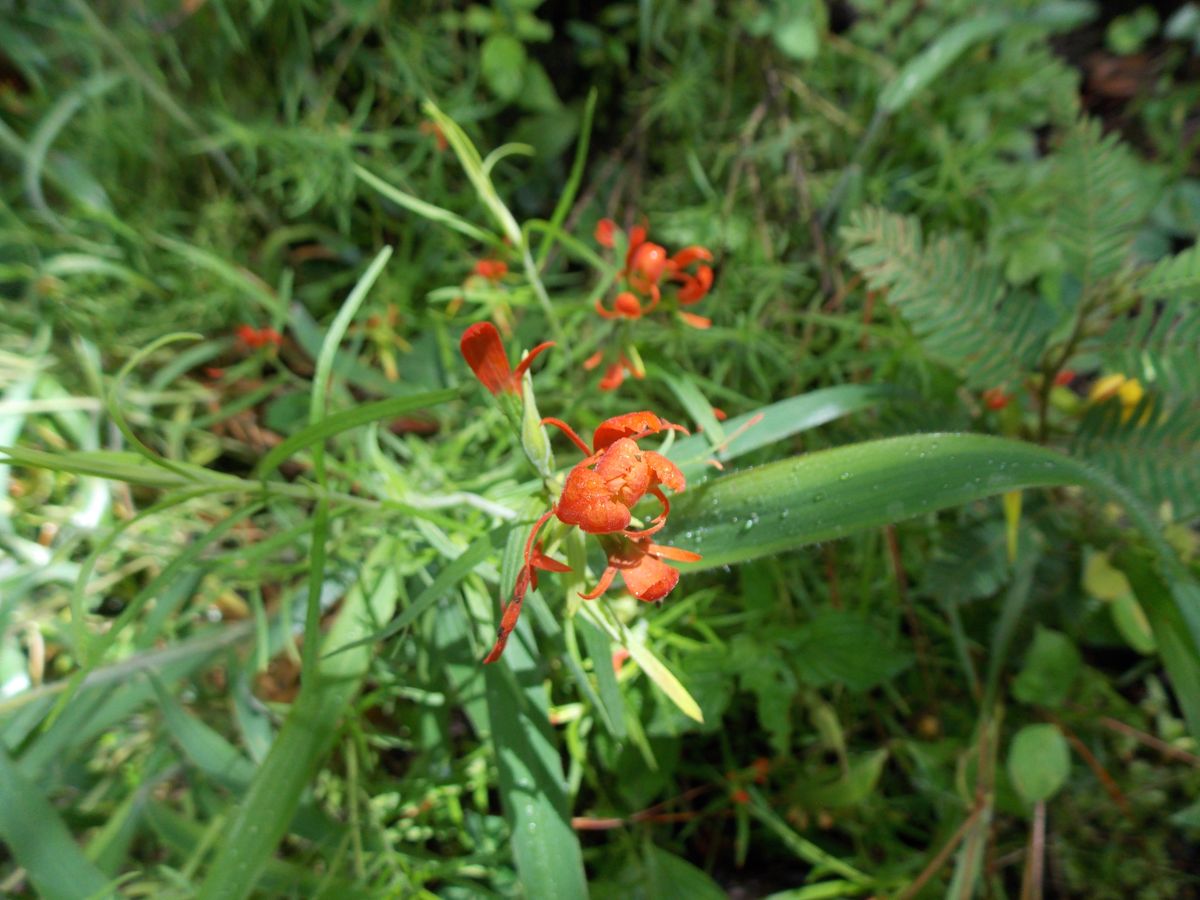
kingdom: Plantae
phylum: Tracheophyta
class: Magnoliopsida
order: Lamiales
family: Orobanchaceae
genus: Castilleja
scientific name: Castilleja integrifolia
